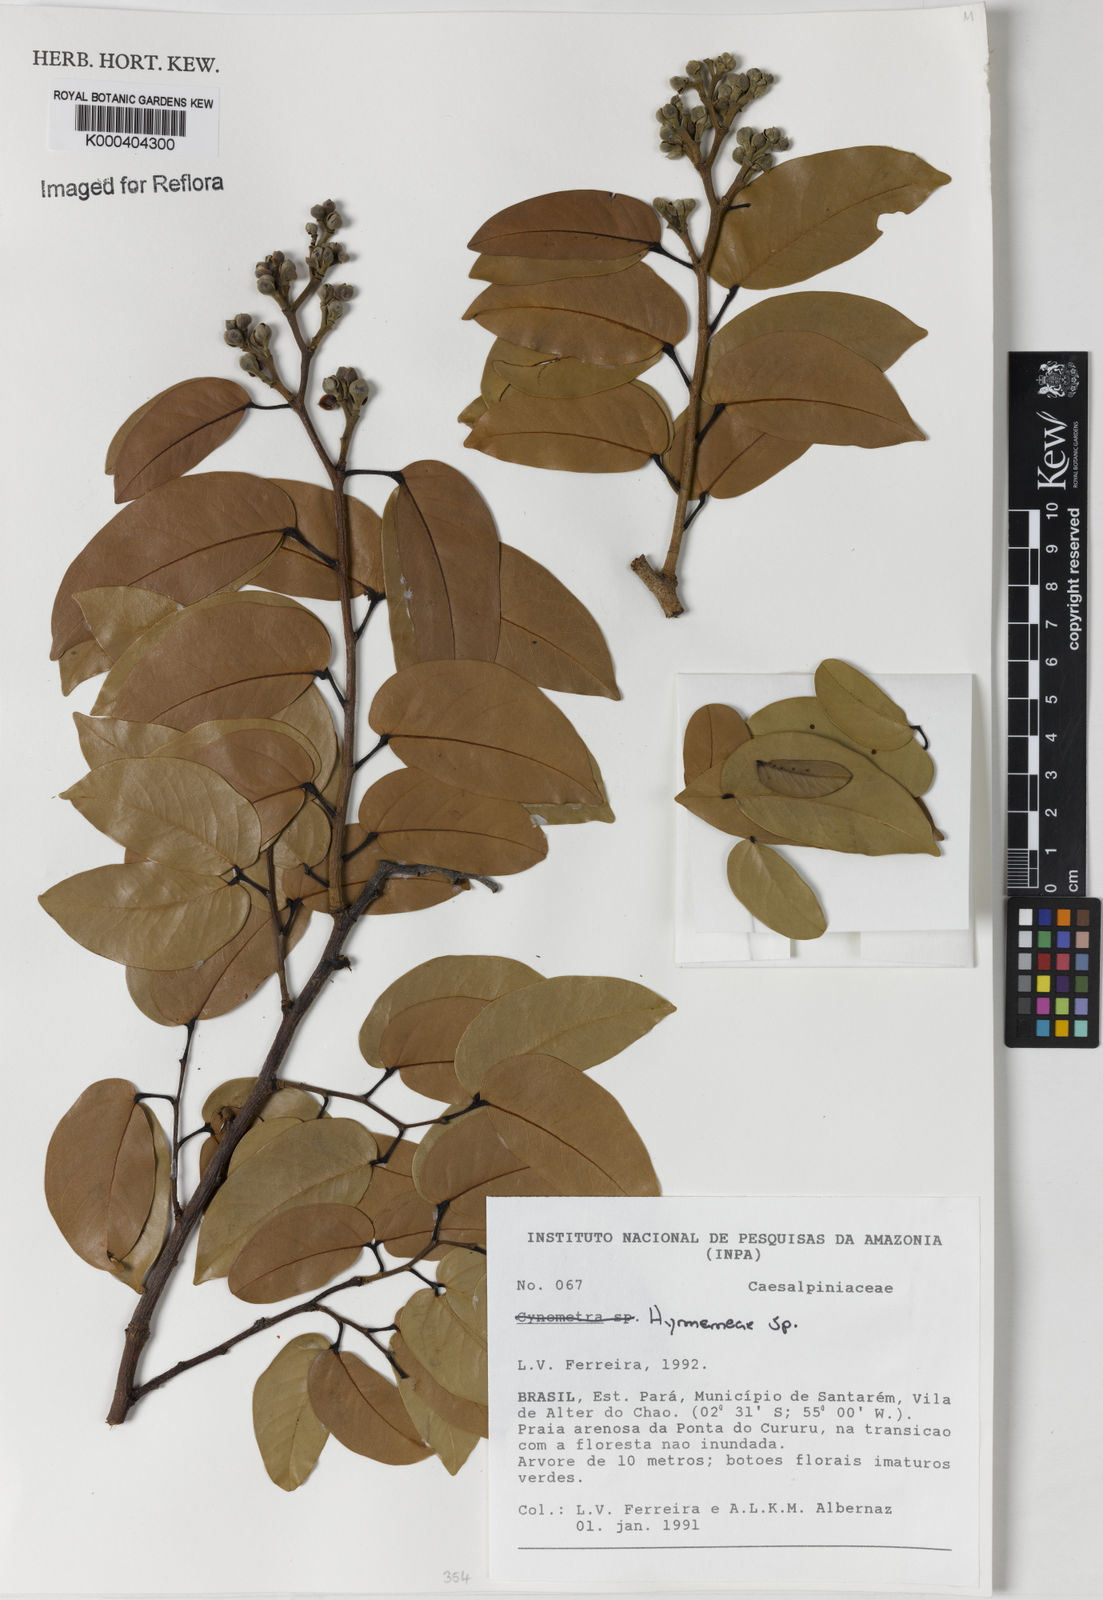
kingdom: Plantae
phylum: Tracheophyta
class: Magnoliopsida
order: Fabales
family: Fabaceae
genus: Hymenaea
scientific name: Hymenaea
